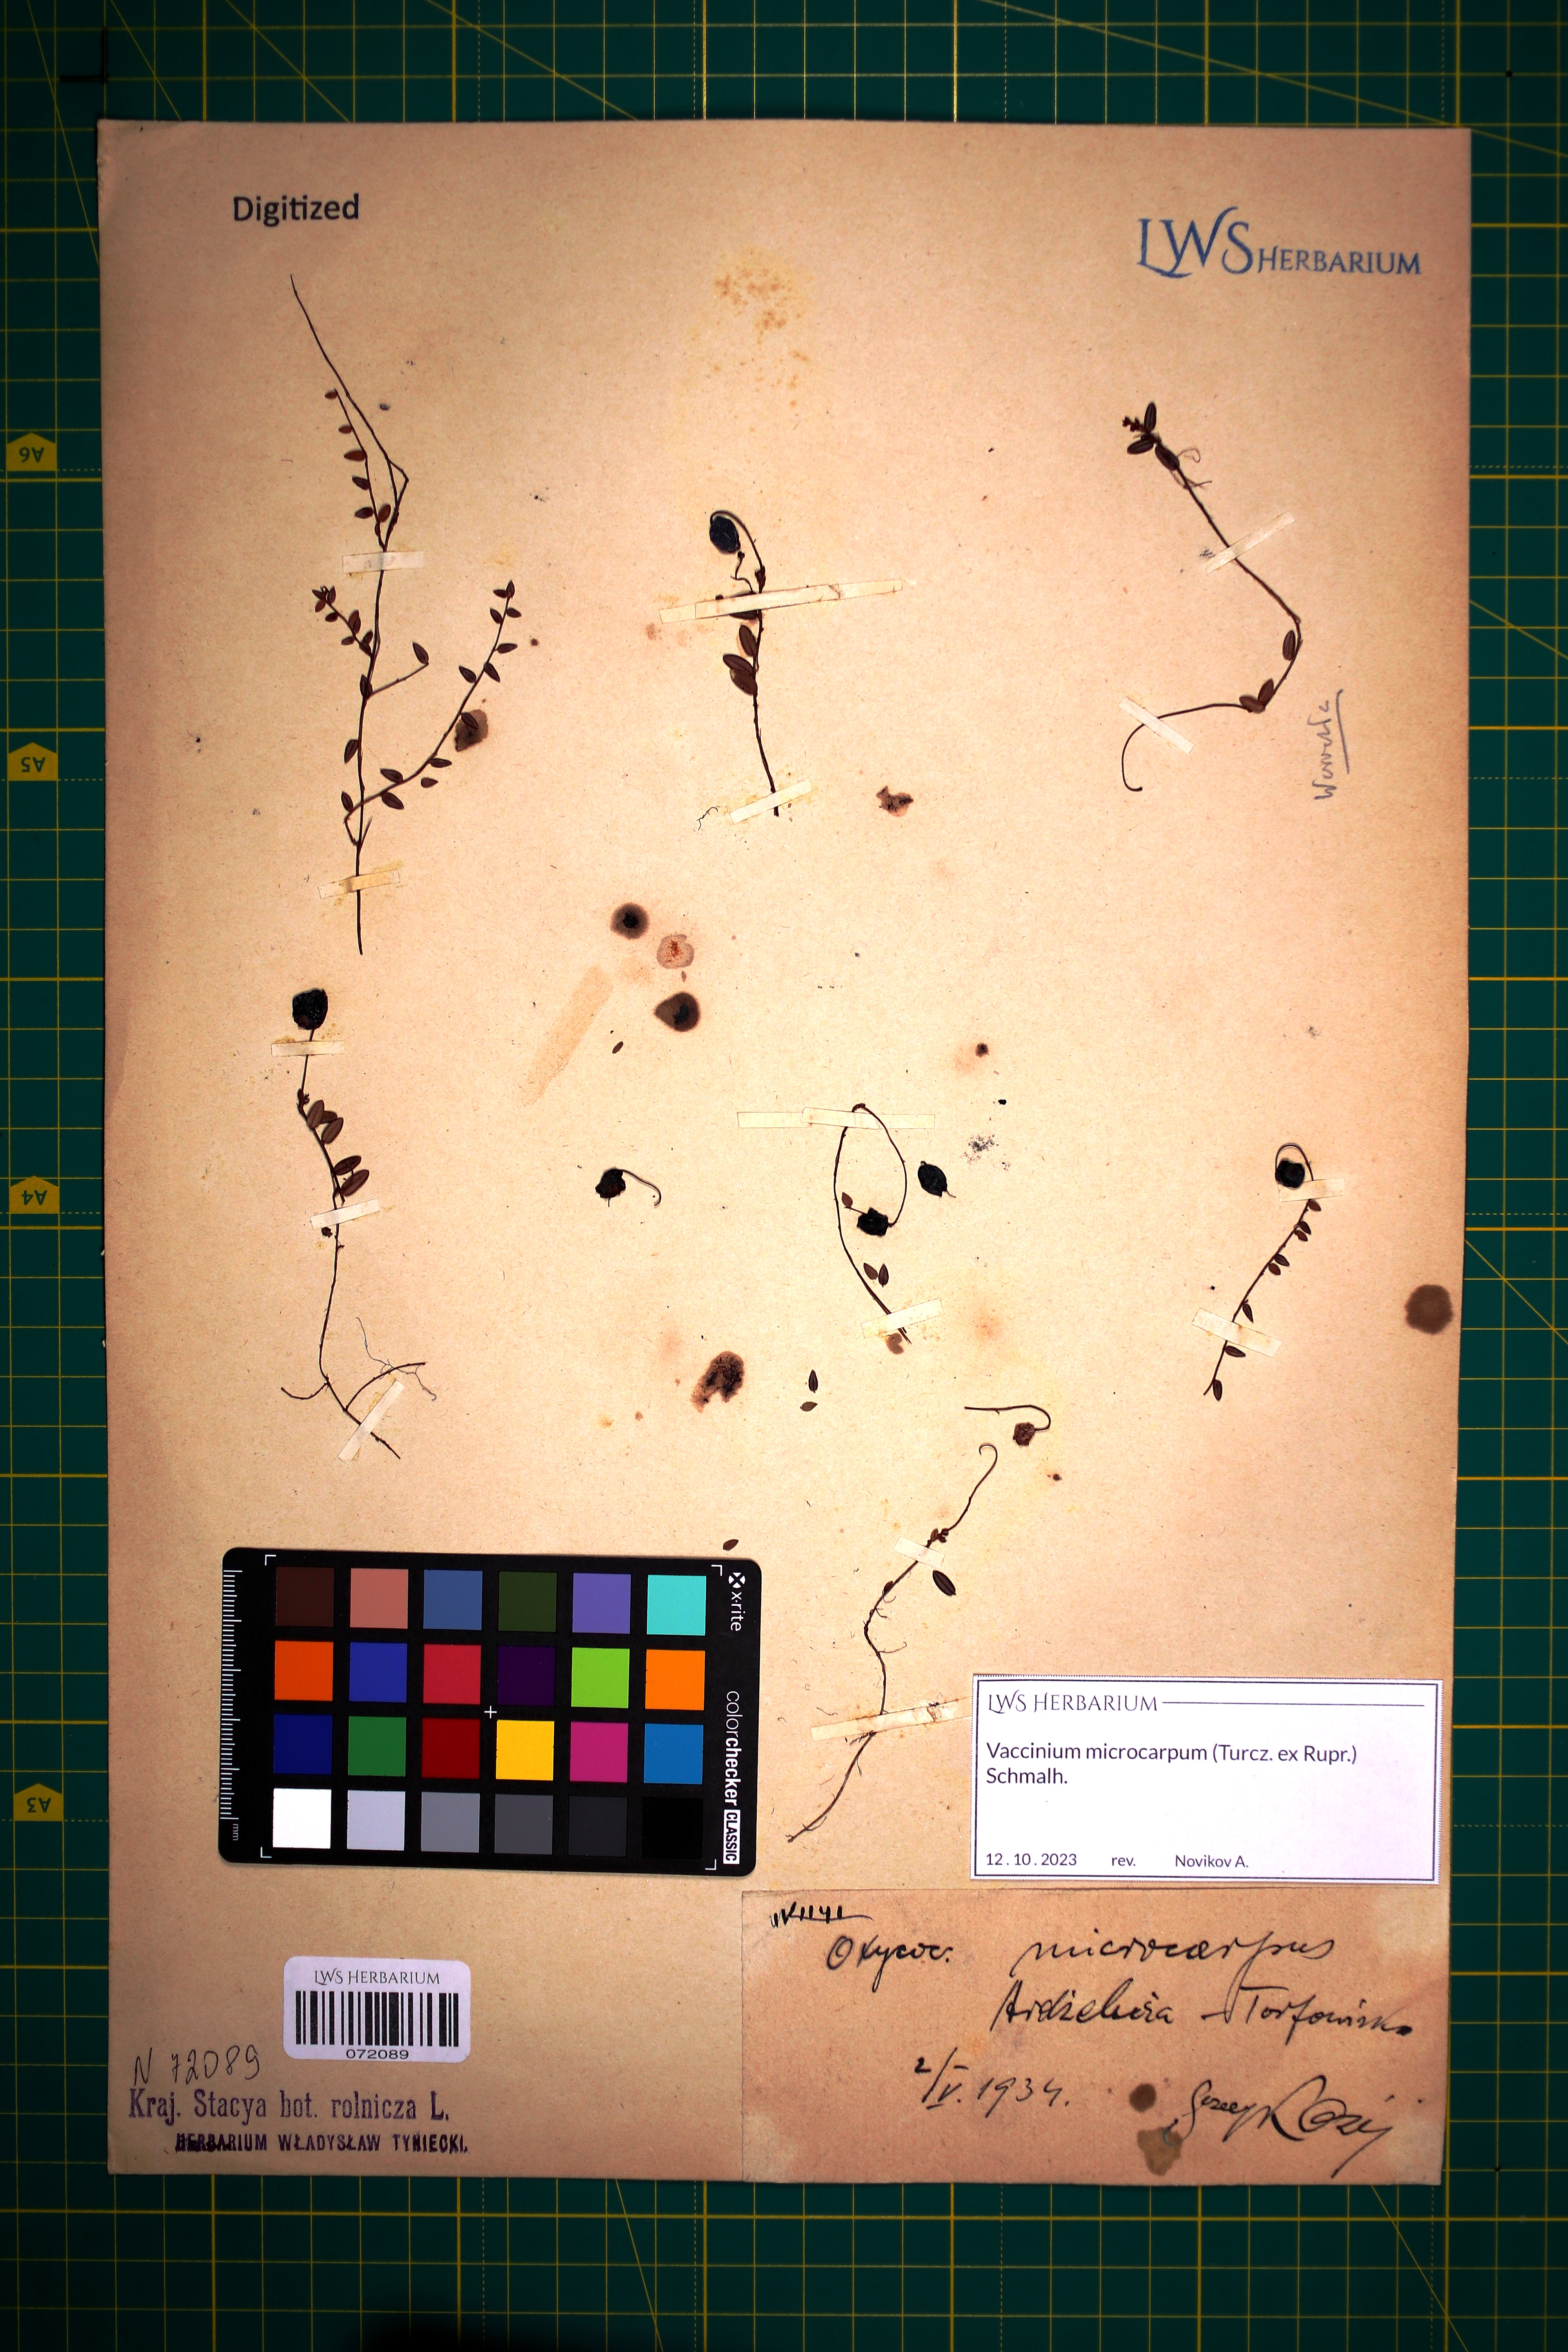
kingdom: Plantae
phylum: Tracheophyta
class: Magnoliopsida
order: Ericales
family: Ericaceae
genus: Vaccinium
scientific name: Vaccinium microcarpum
